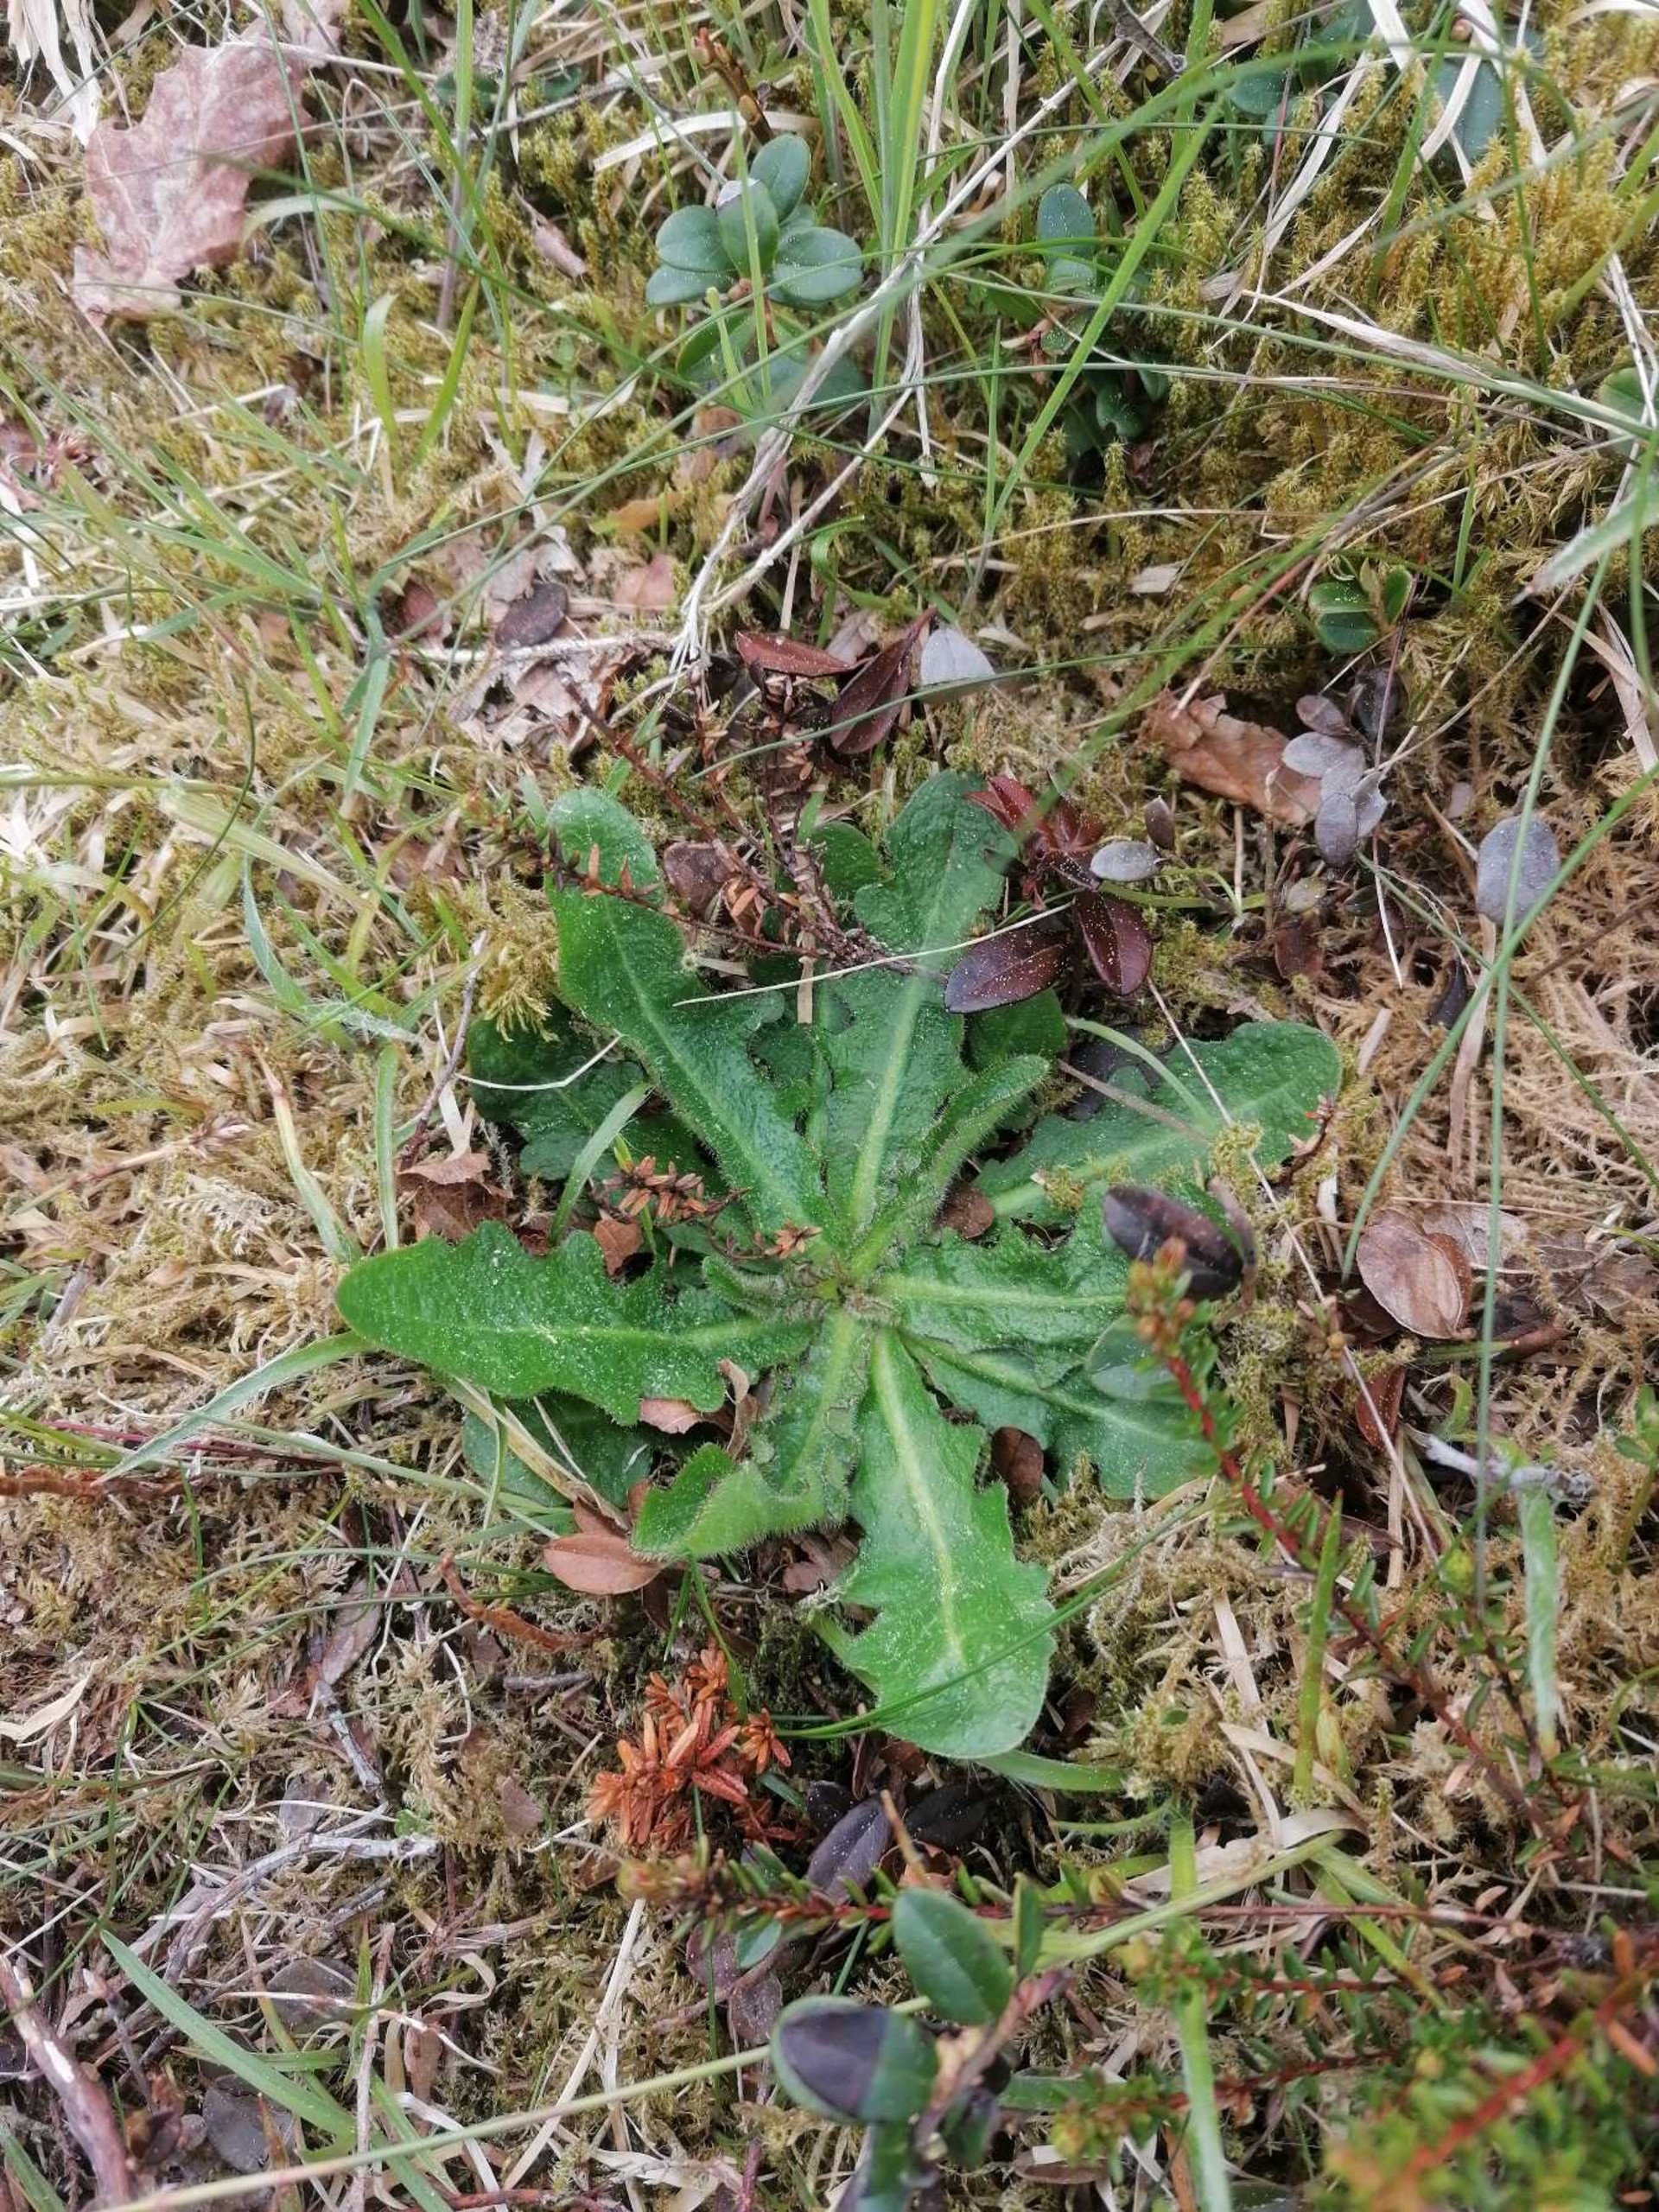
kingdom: Plantae
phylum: Tracheophyta
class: Magnoliopsida
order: Asterales
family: Asteraceae
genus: Hypochaeris
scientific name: Hypochaeris radicata
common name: Almindelig kongepen
